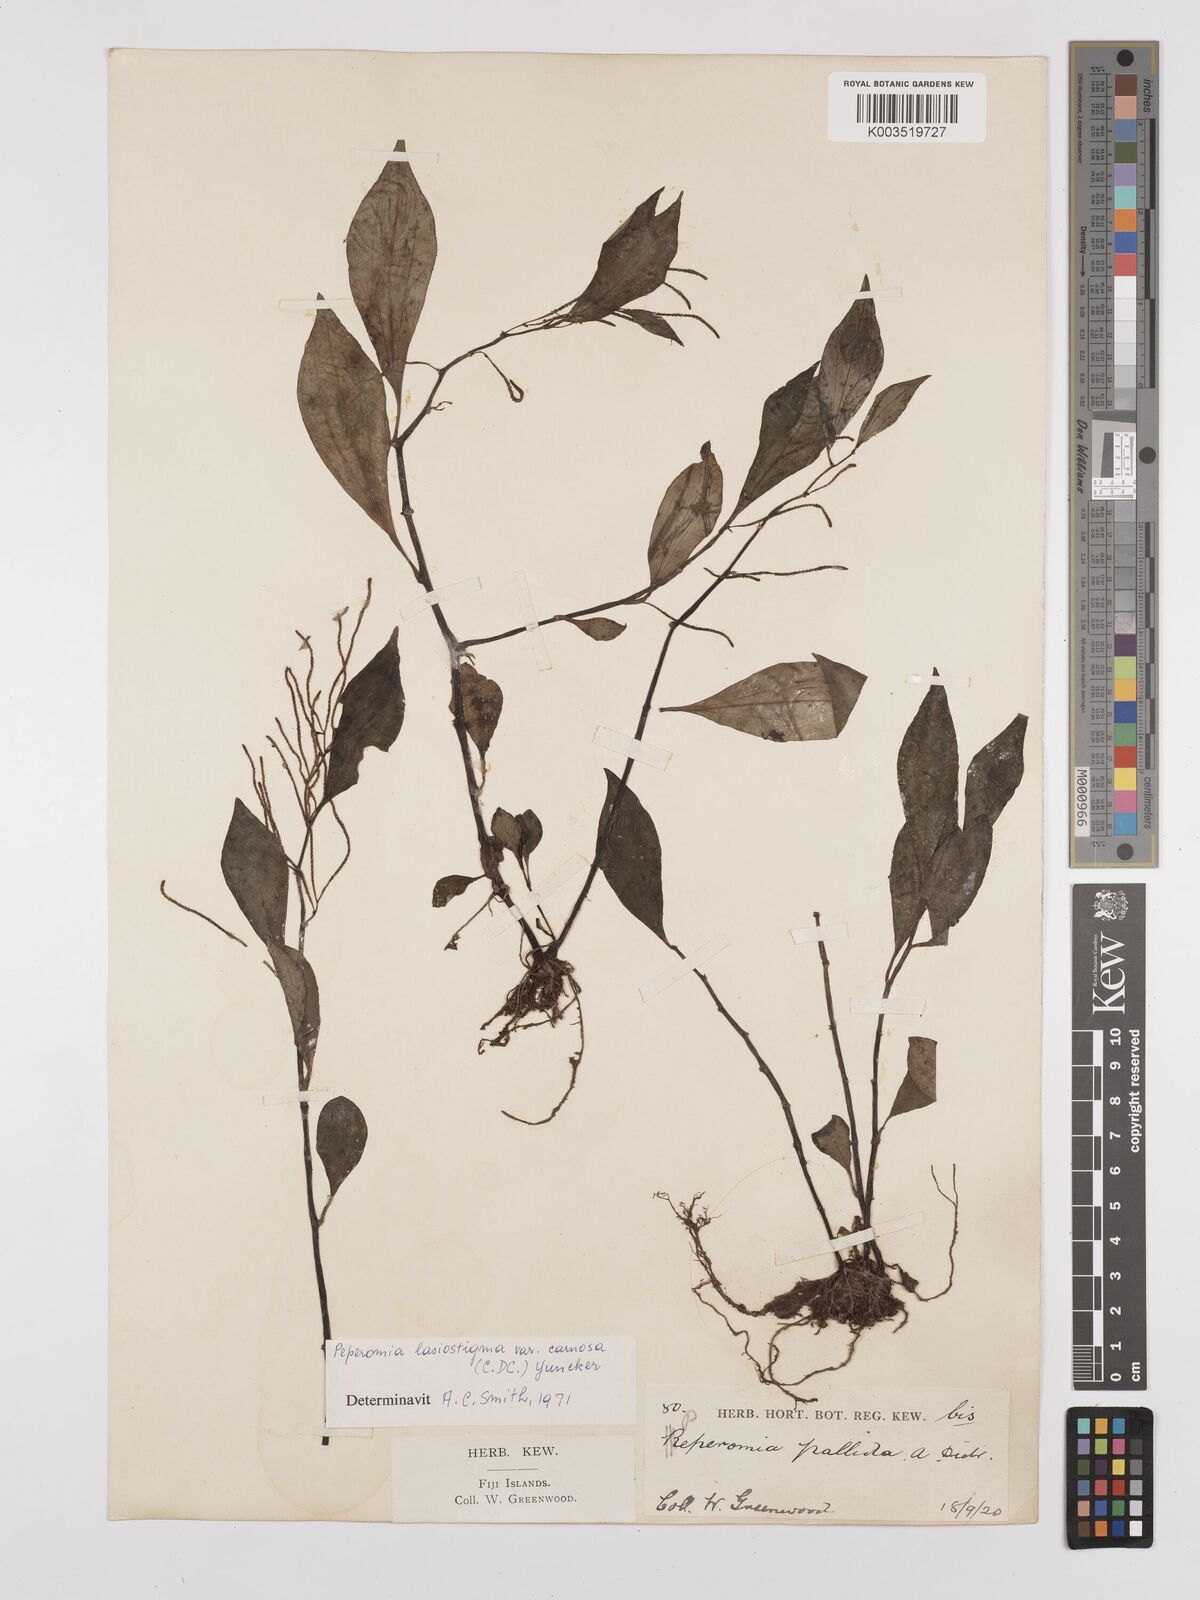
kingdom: Plantae
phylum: Tracheophyta
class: Magnoliopsida
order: Piperales
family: Piperaceae
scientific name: Piperaceae
